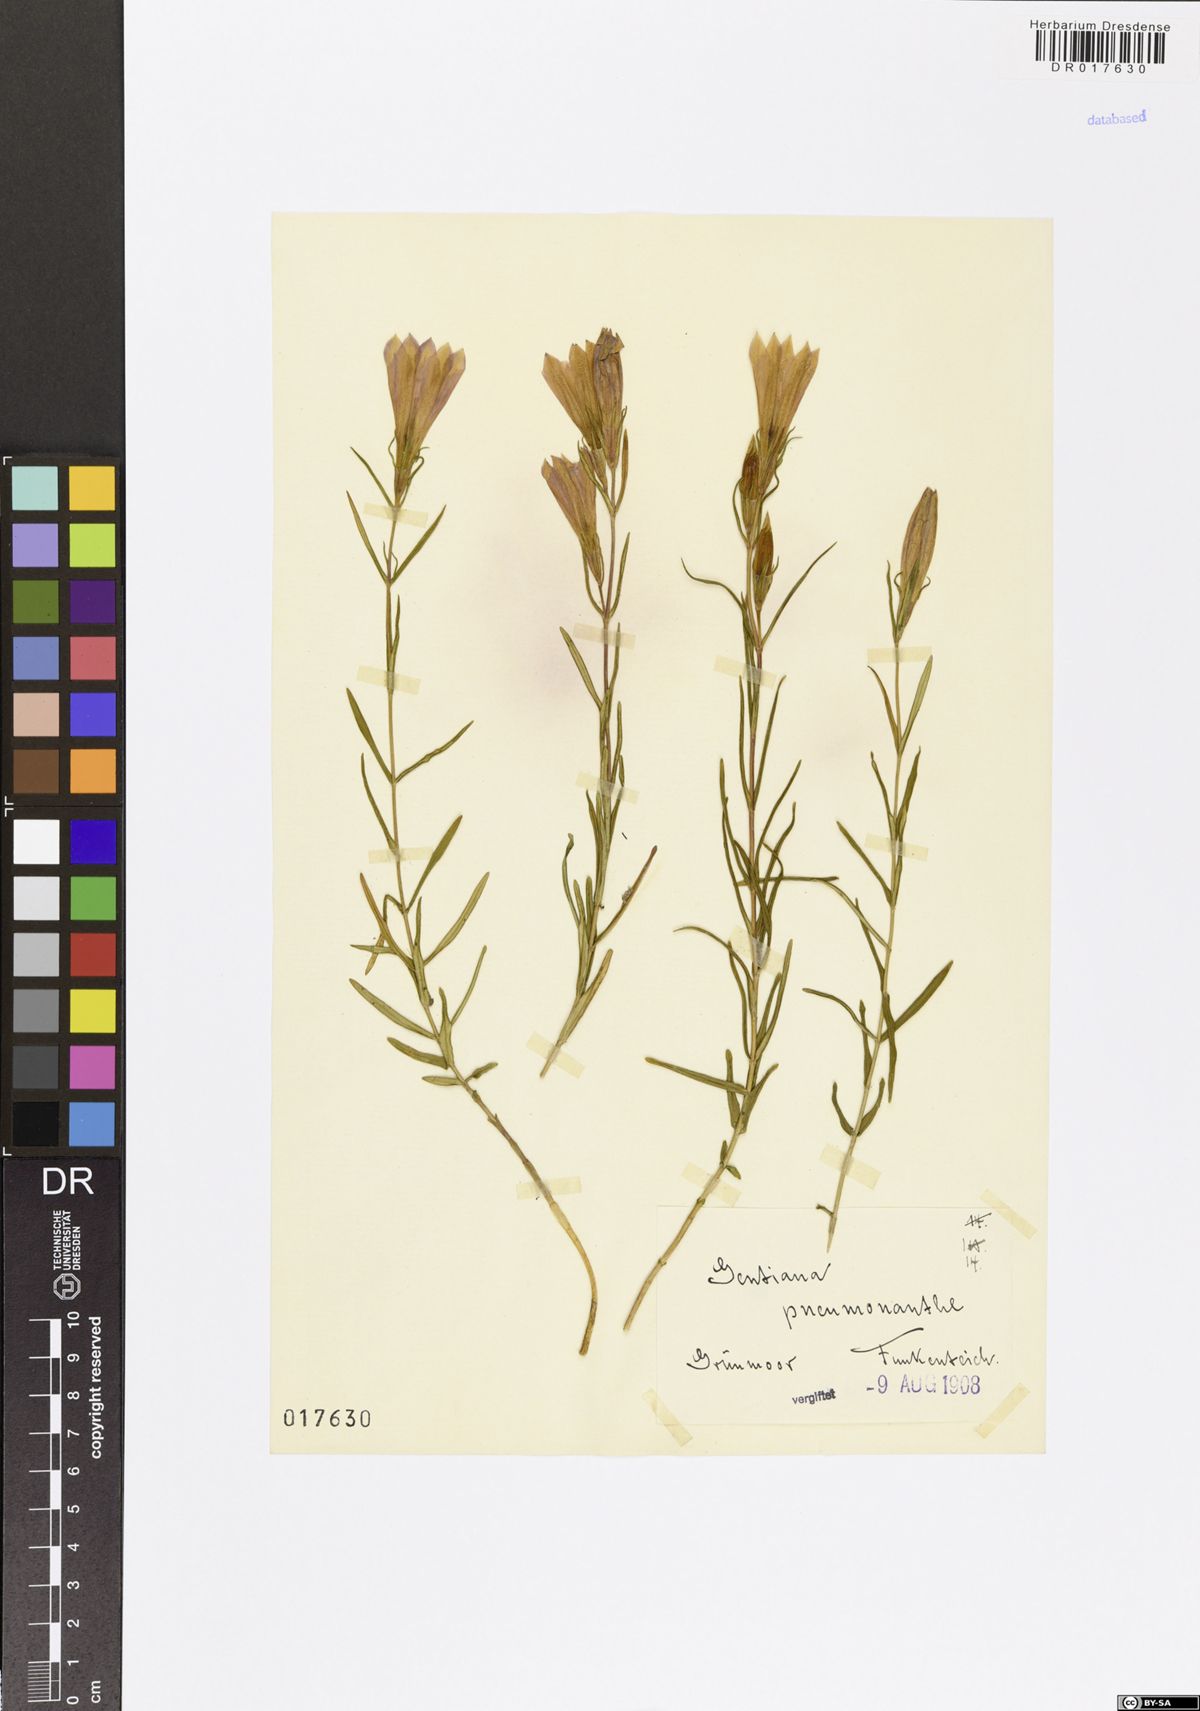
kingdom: Plantae
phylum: Tracheophyta
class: Magnoliopsida
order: Gentianales
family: Gentianaceae
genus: Gentiana
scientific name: Gentiana pneumonanthe
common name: Marsh gentian
